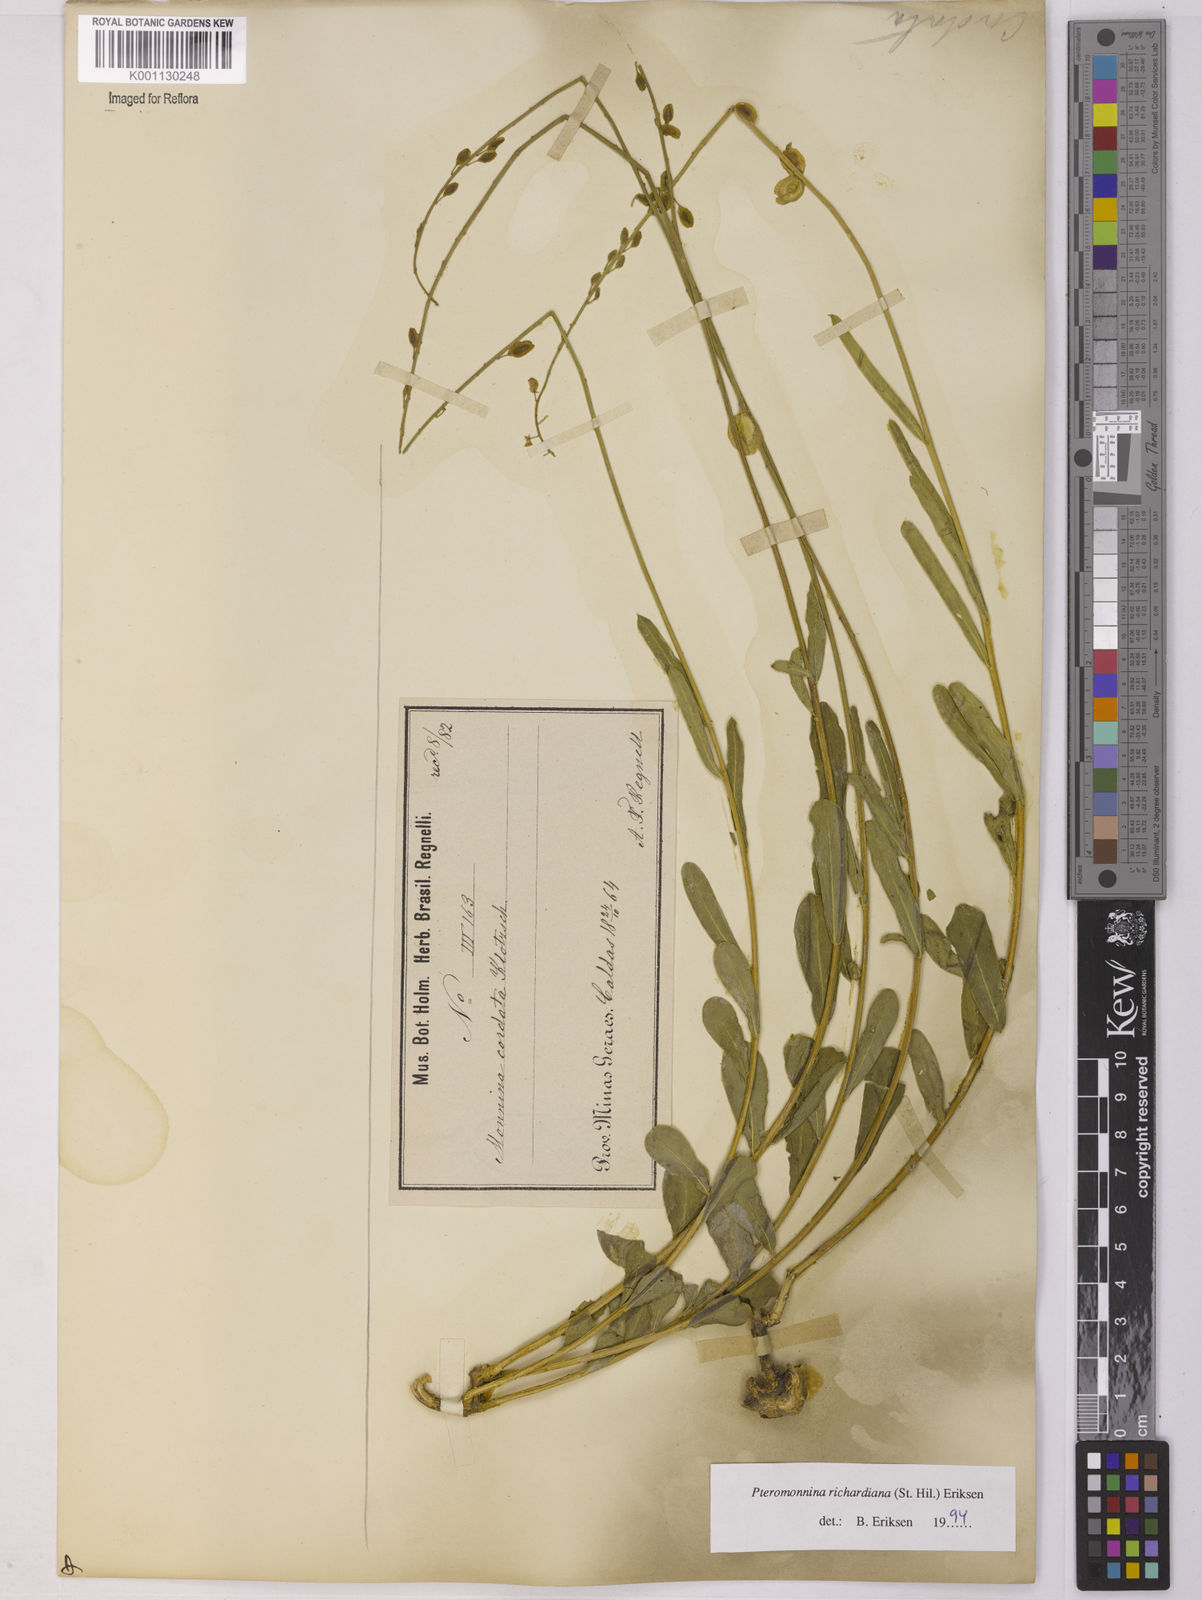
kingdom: Plantae
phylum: Tracheophyta
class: Magnoliopsida
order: Fabales
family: Polygalaceae
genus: Monnina
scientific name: Monnina richardiana
